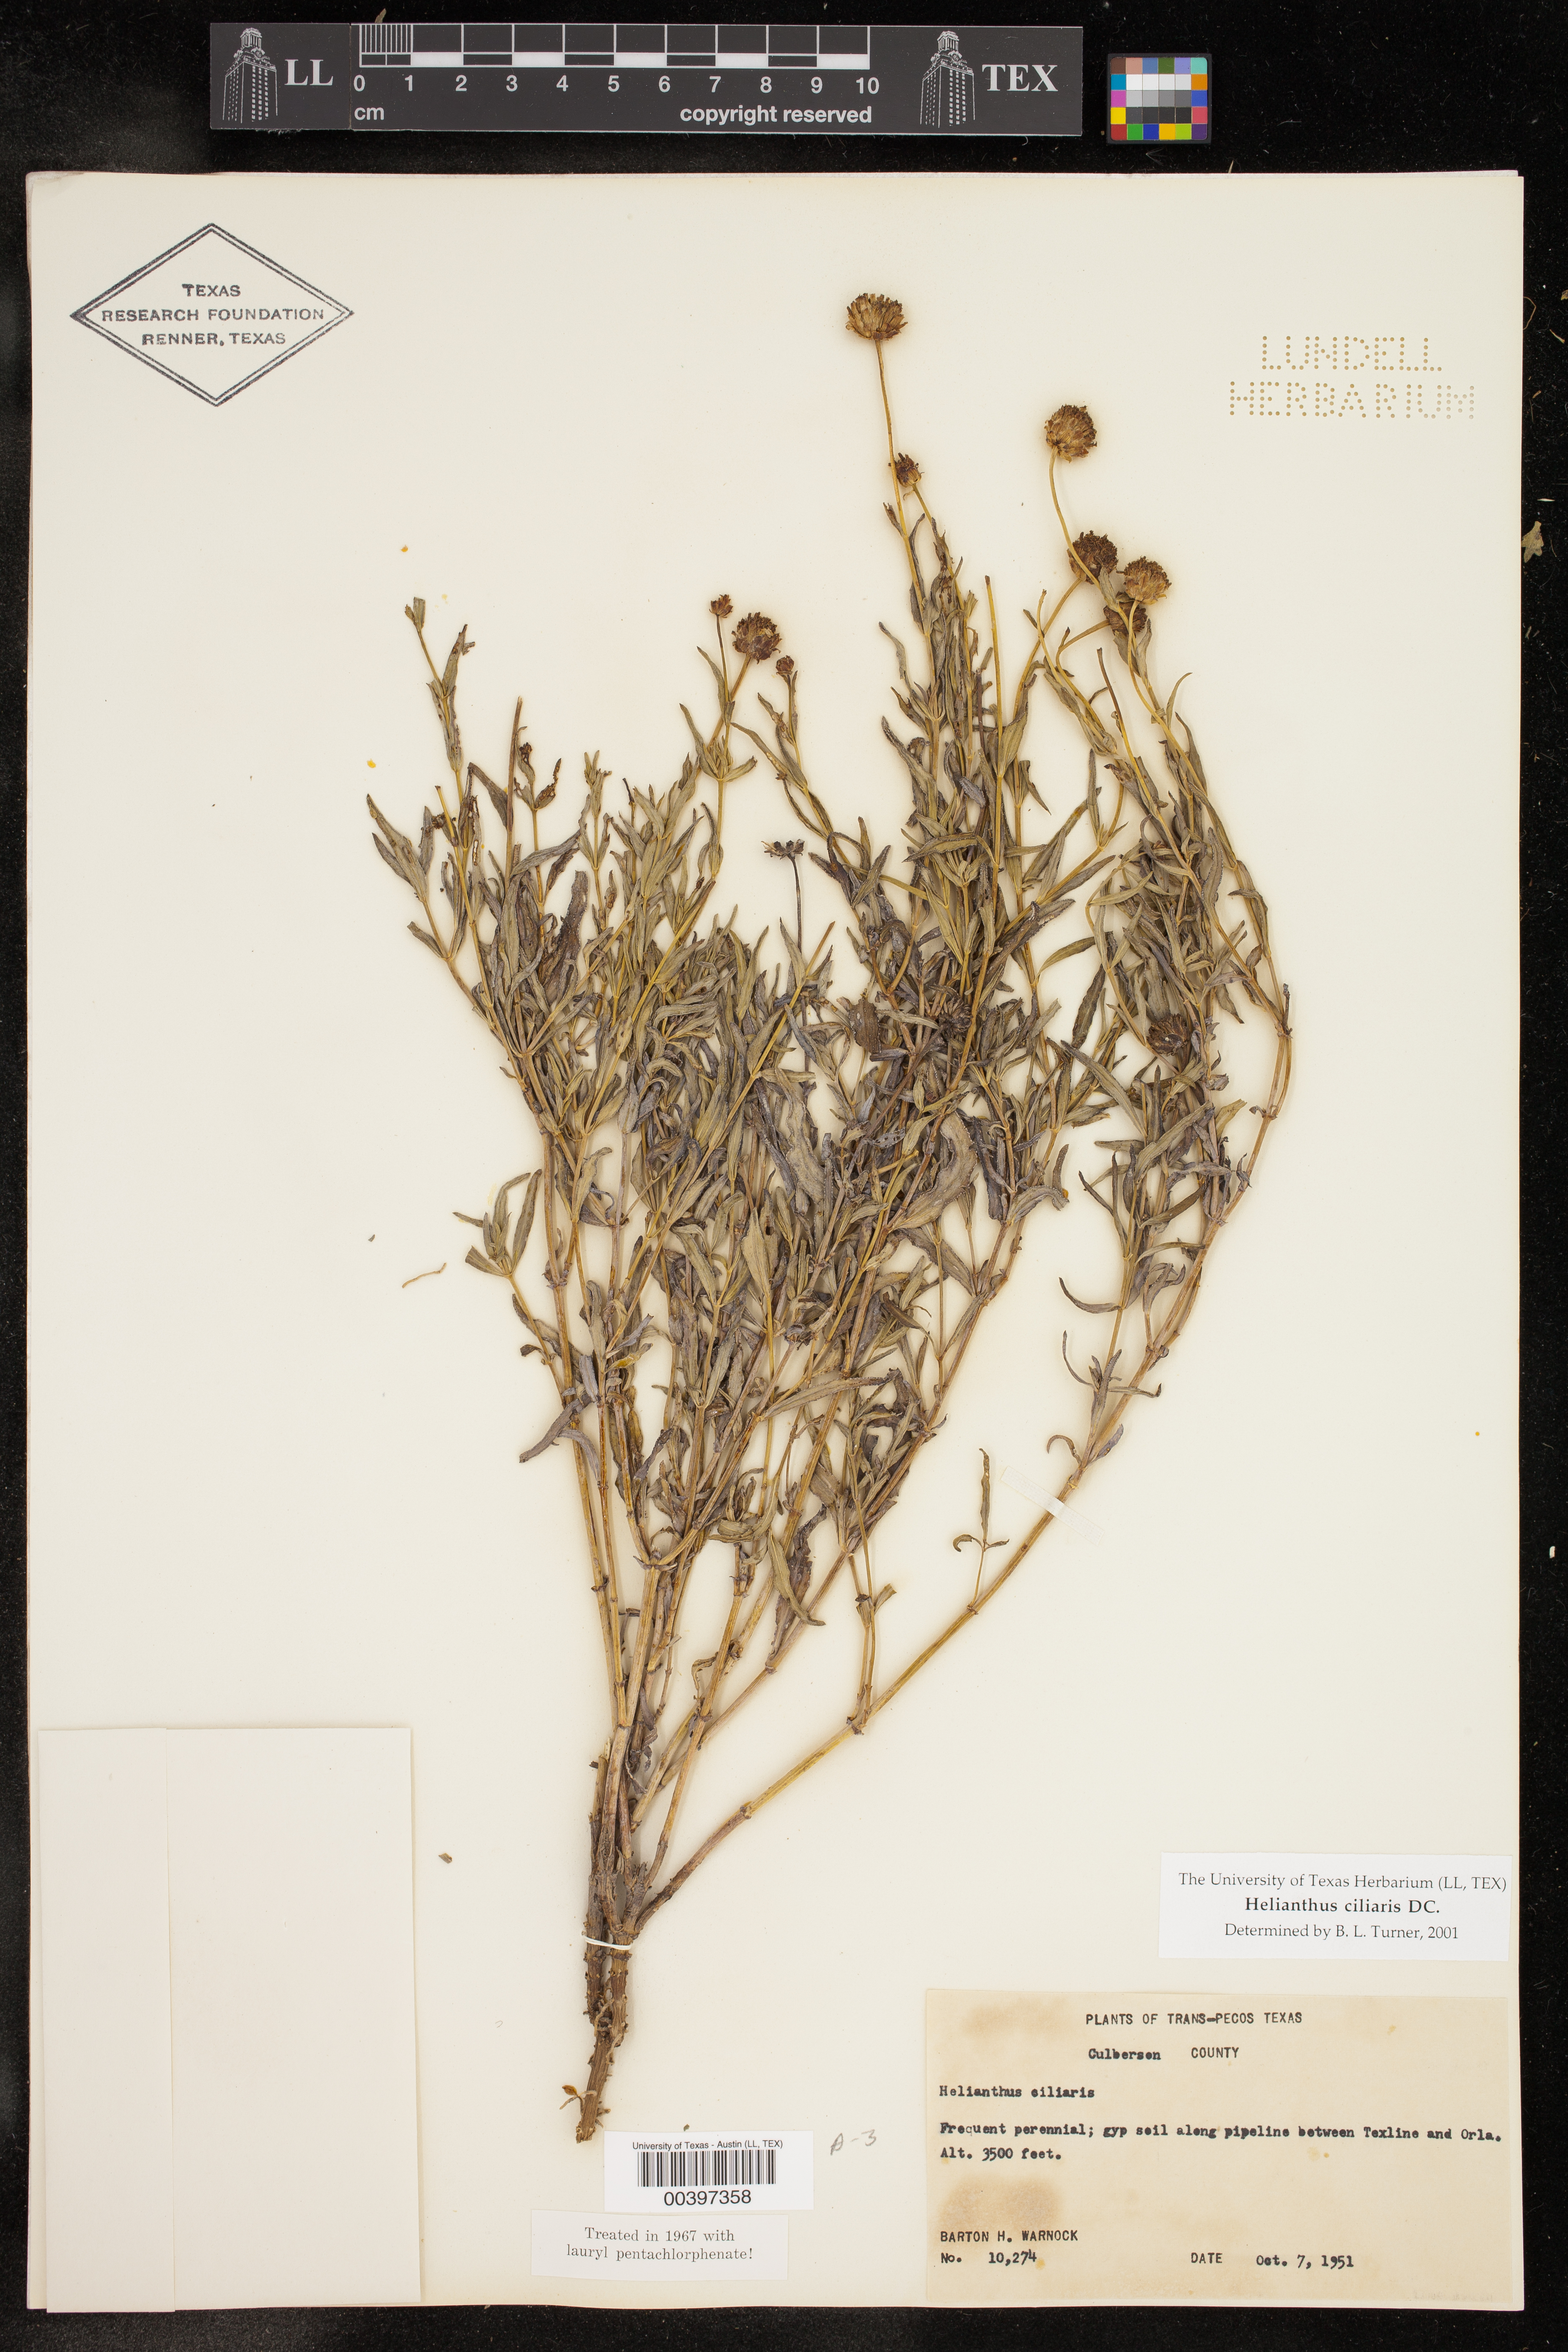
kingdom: Plantae
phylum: Tracheophyta
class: Magnoliopsida
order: Asterales
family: Asteraceae
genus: Helianthus
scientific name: Helianthus ciliaris
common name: Texas blueweed
